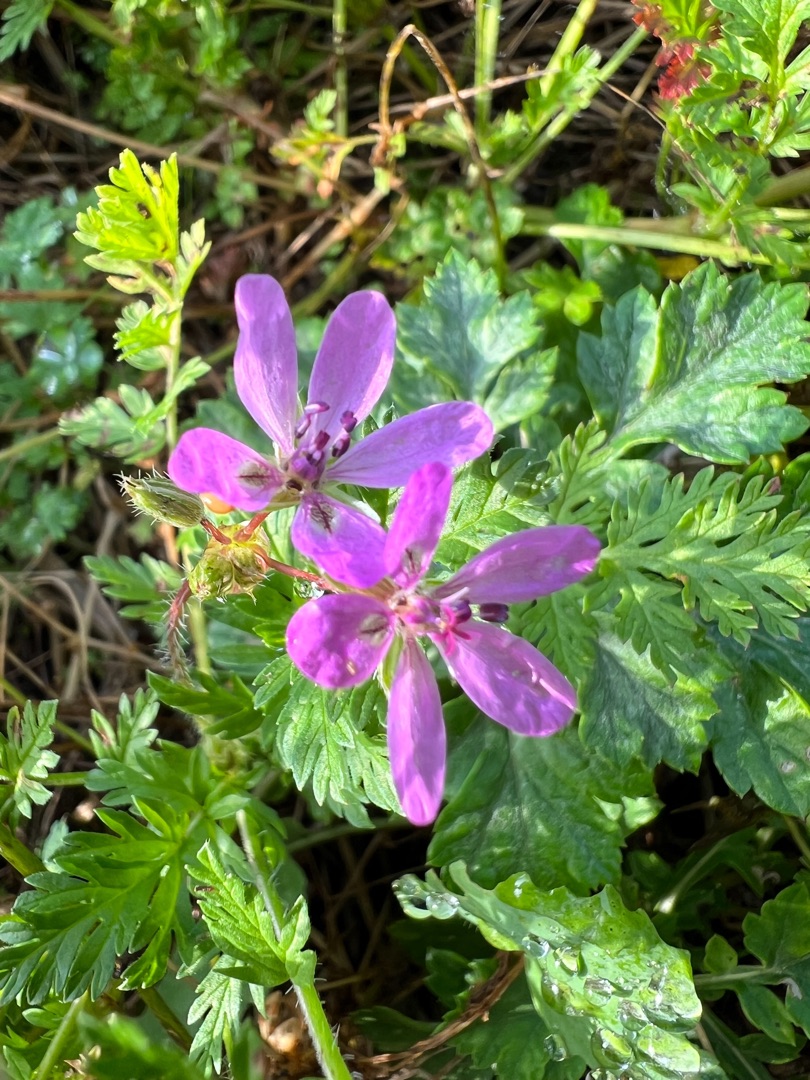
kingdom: Plantae
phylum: Tracheophyta
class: Magnoliopsida
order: Geraniales
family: Geraniaceae
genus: Erodium
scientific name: Erodium cicutarium
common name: Hejrenæb
